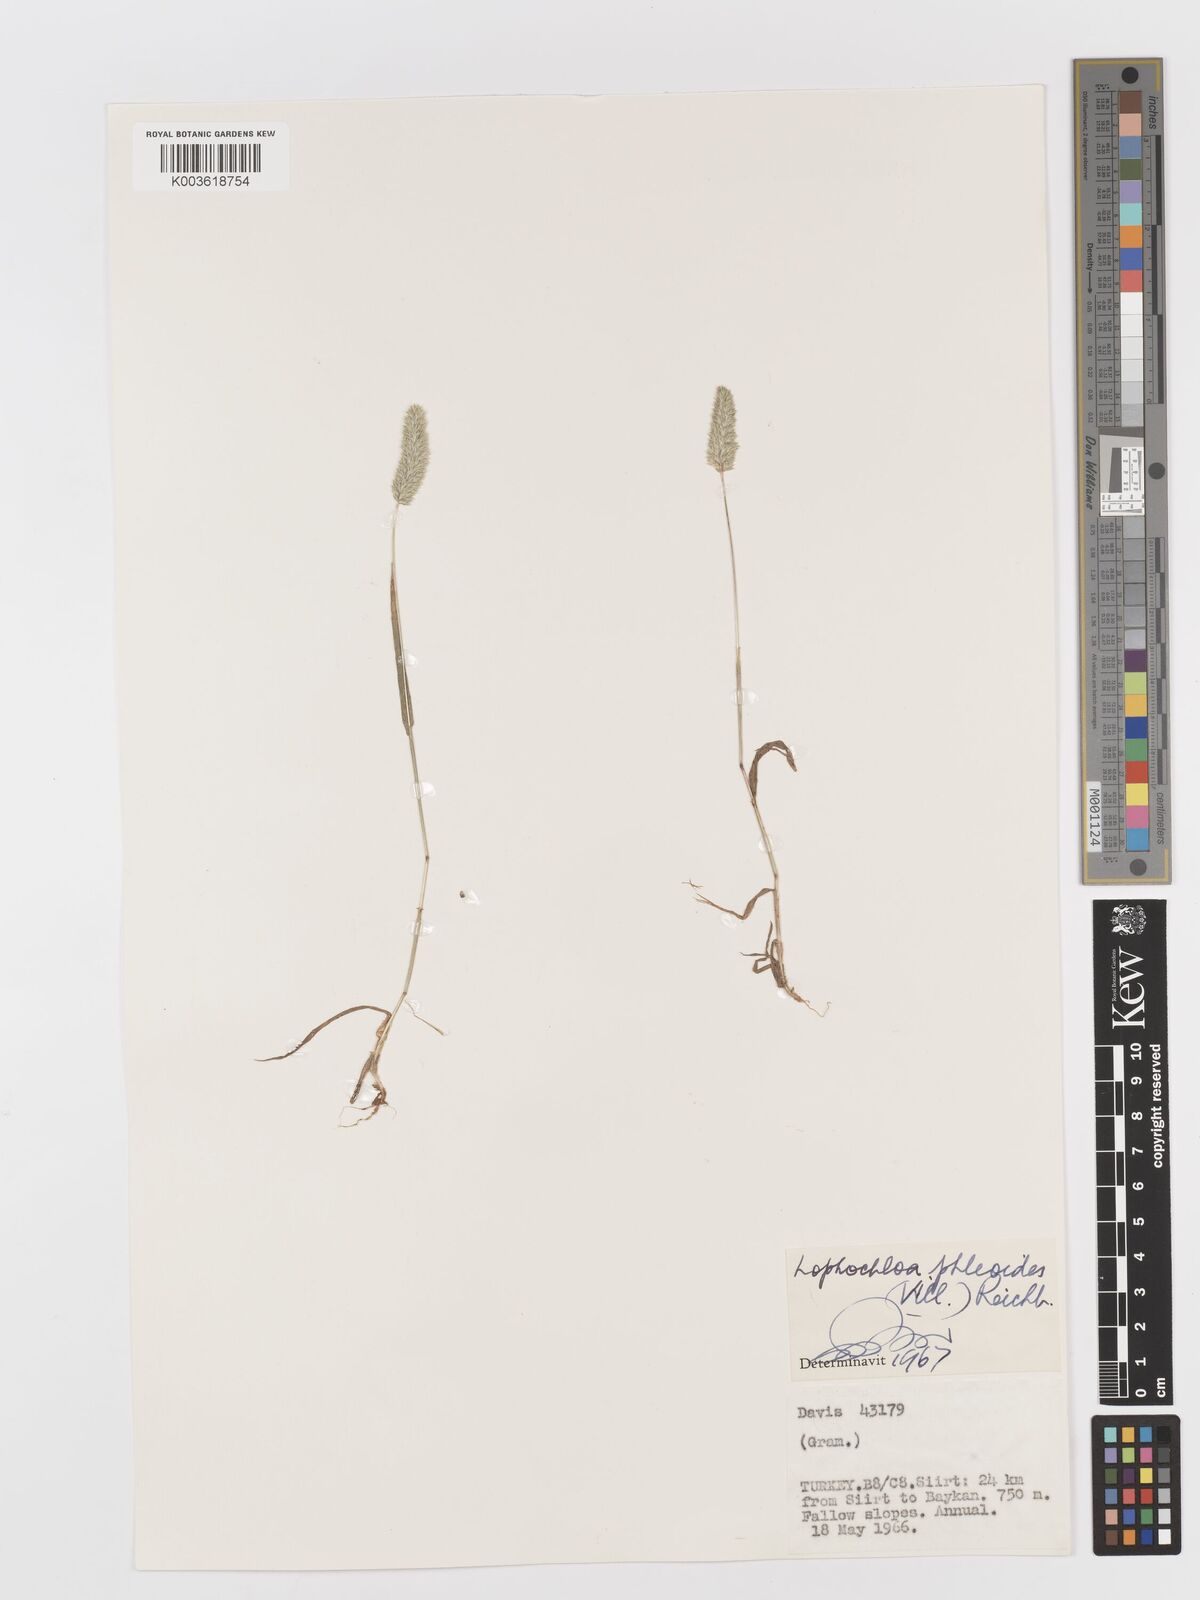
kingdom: Plantae
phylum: Tracheophyta
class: Liliopsida
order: Poales
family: Poaceae
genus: Rostraria
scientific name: Rostraria cristata
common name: Mediterranean hair-grass
